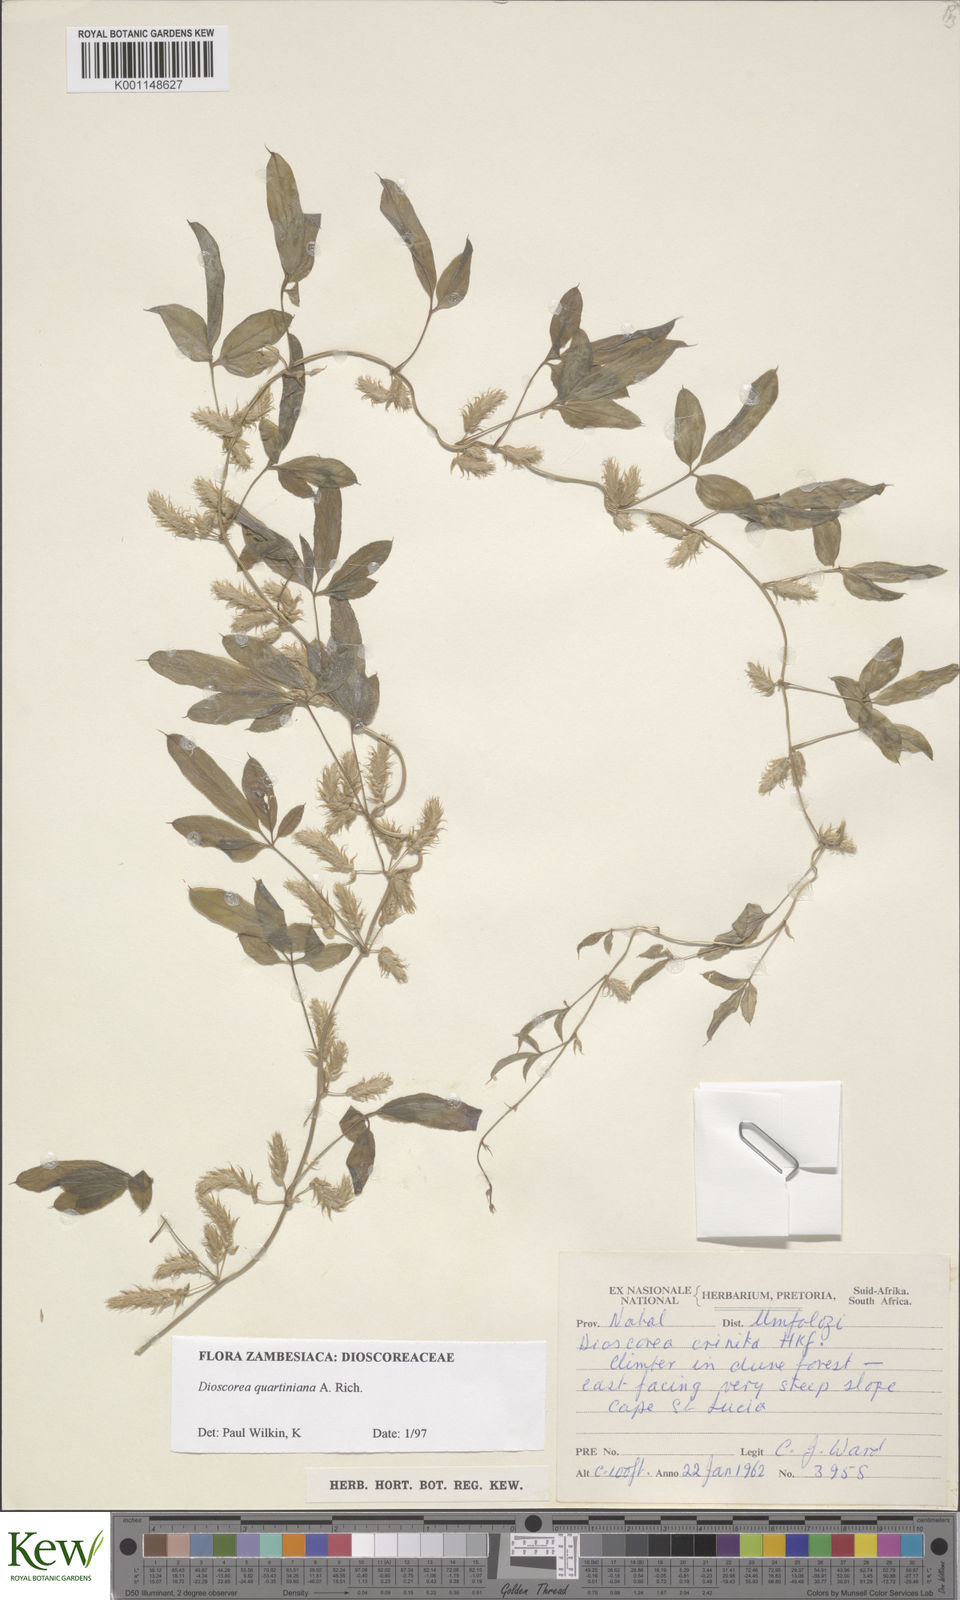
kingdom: Plantae
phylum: Tracheophyta
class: Liliopsida
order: Dioscoreales
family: Dioscoreaceae
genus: Dioscorea
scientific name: Dioscorea quartiniana
